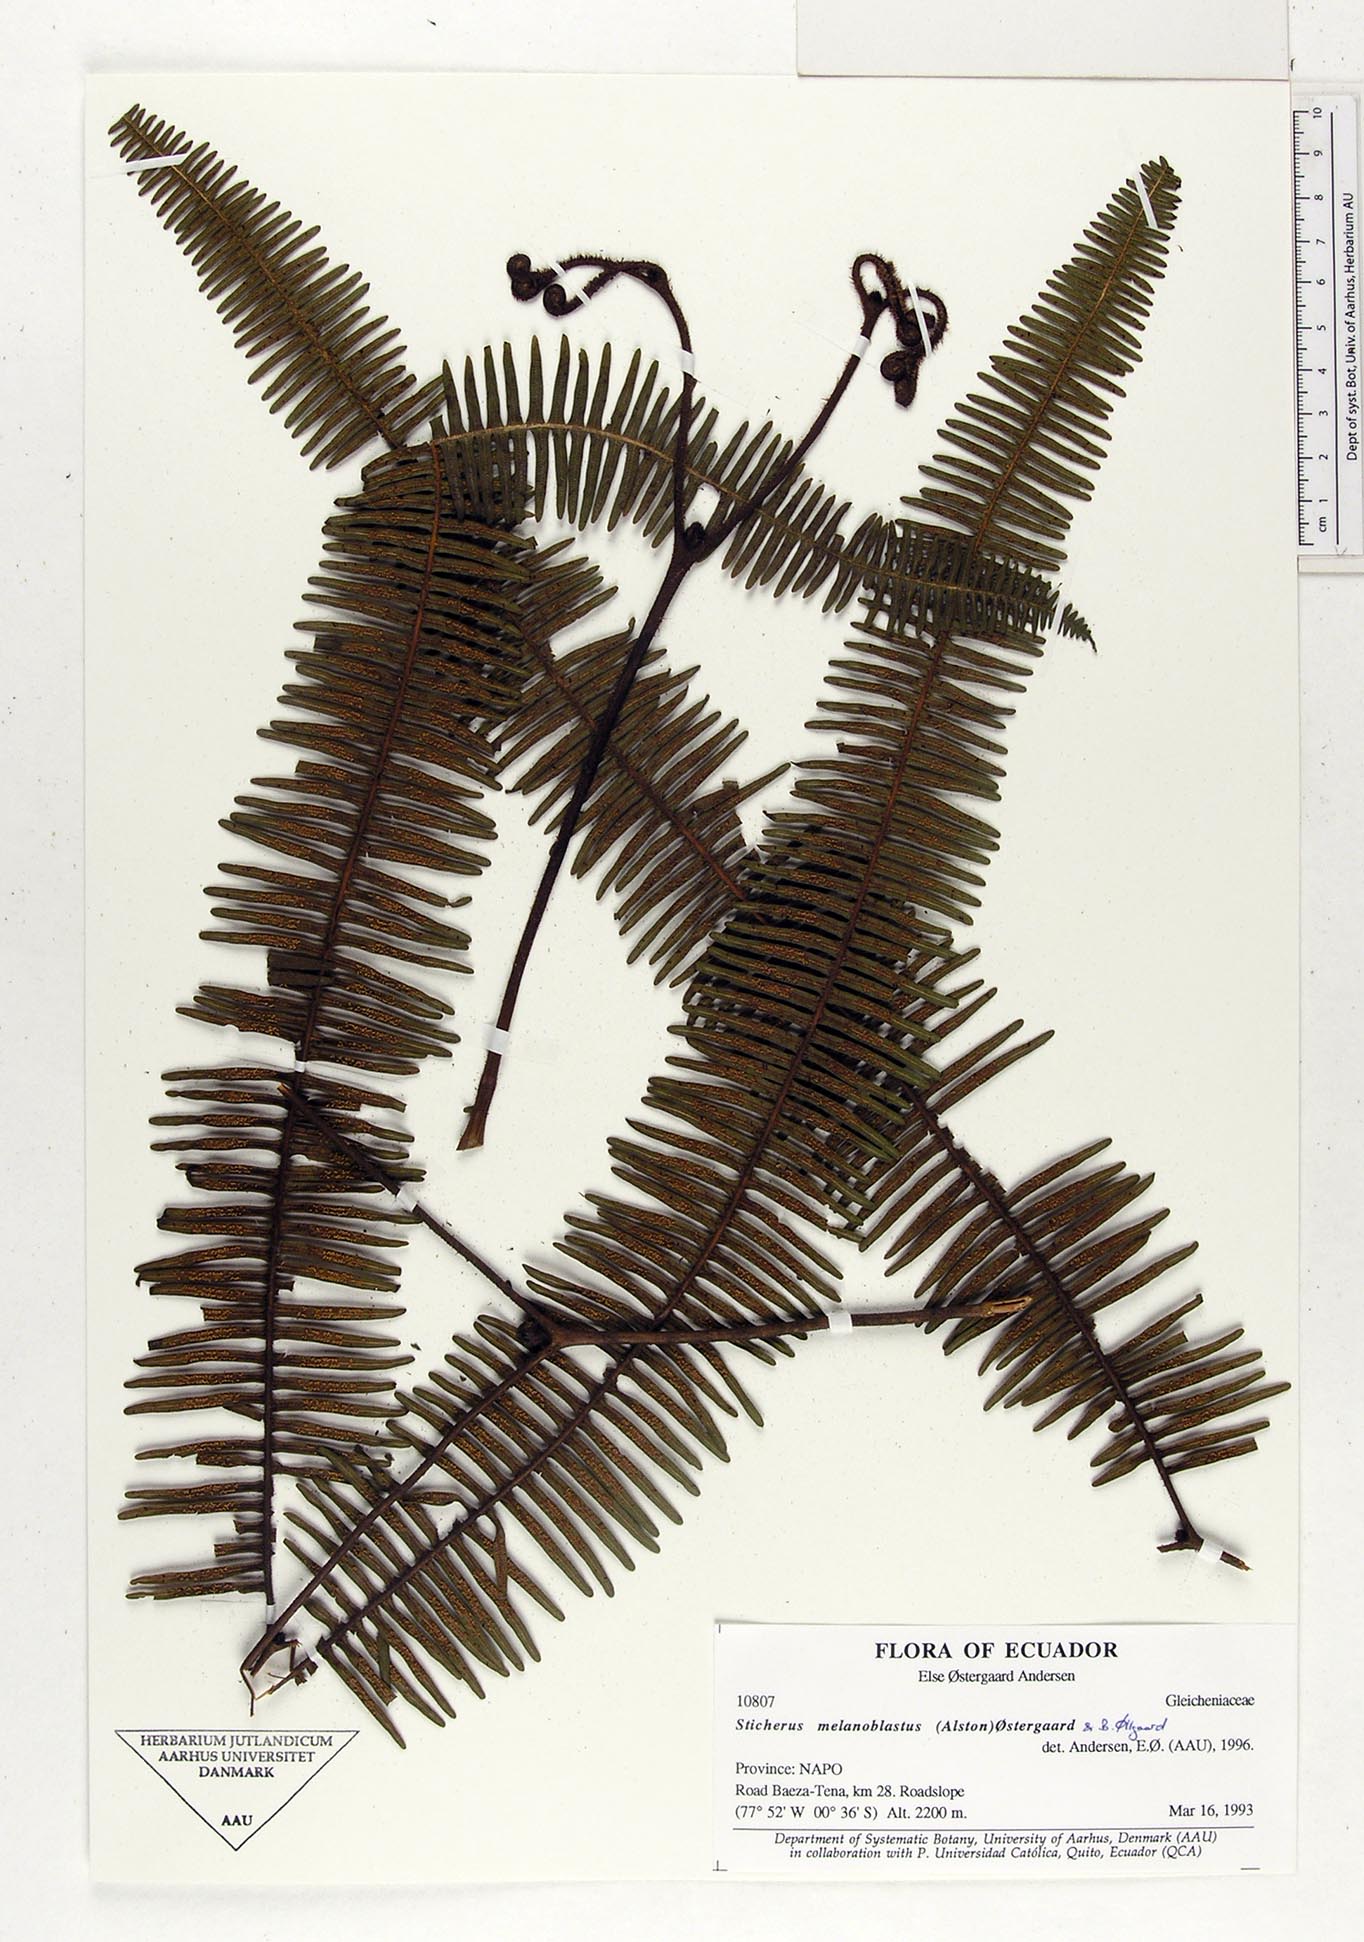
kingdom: Plantae
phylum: Tracheophyta
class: Polypodiopsida
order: Gleicheniales
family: Gleicheniaceae
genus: Sticherus
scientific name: Sticherus melanoblastus
